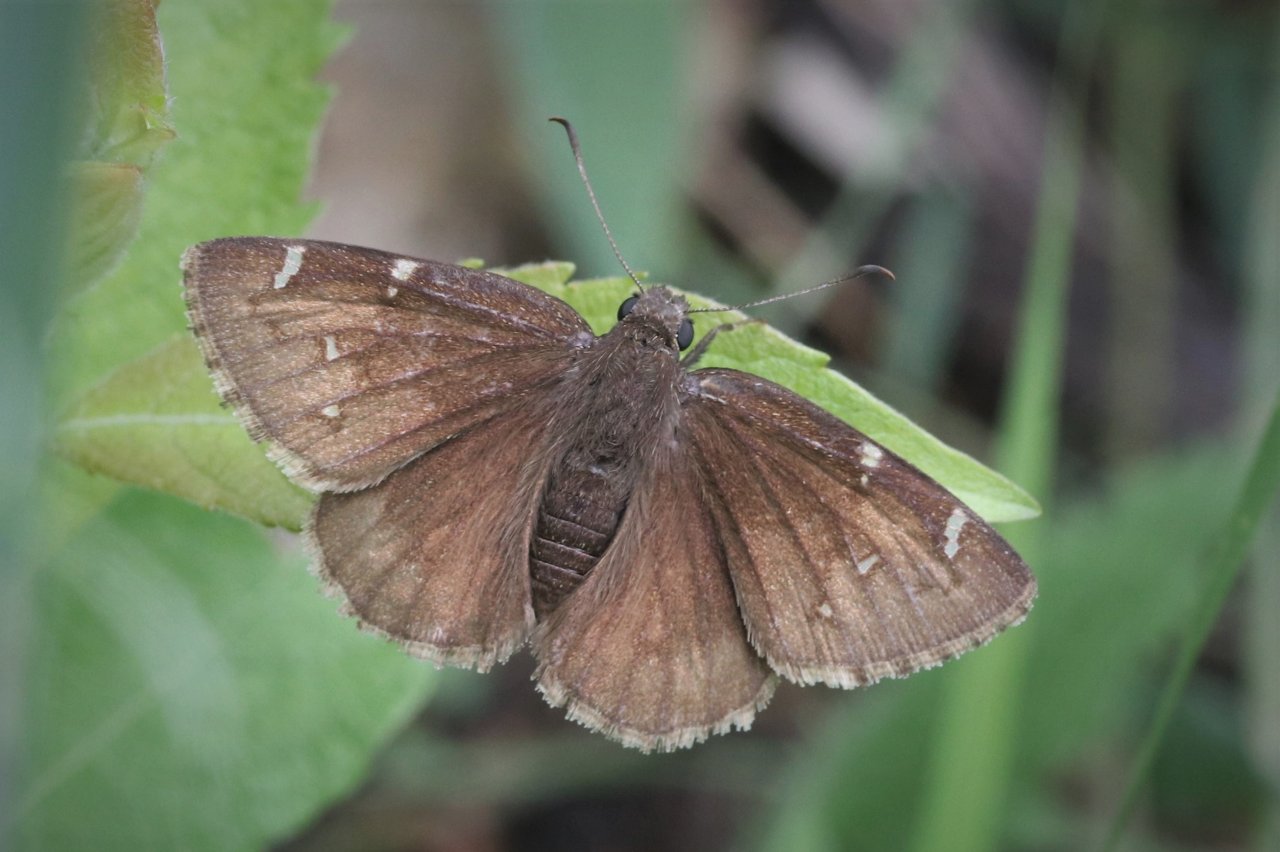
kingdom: Animalia
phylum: Arthropoda
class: Insecta
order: Lepidoptera
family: Hesperiidae
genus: Autochton
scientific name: Autochton
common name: Northern Cloudywing
